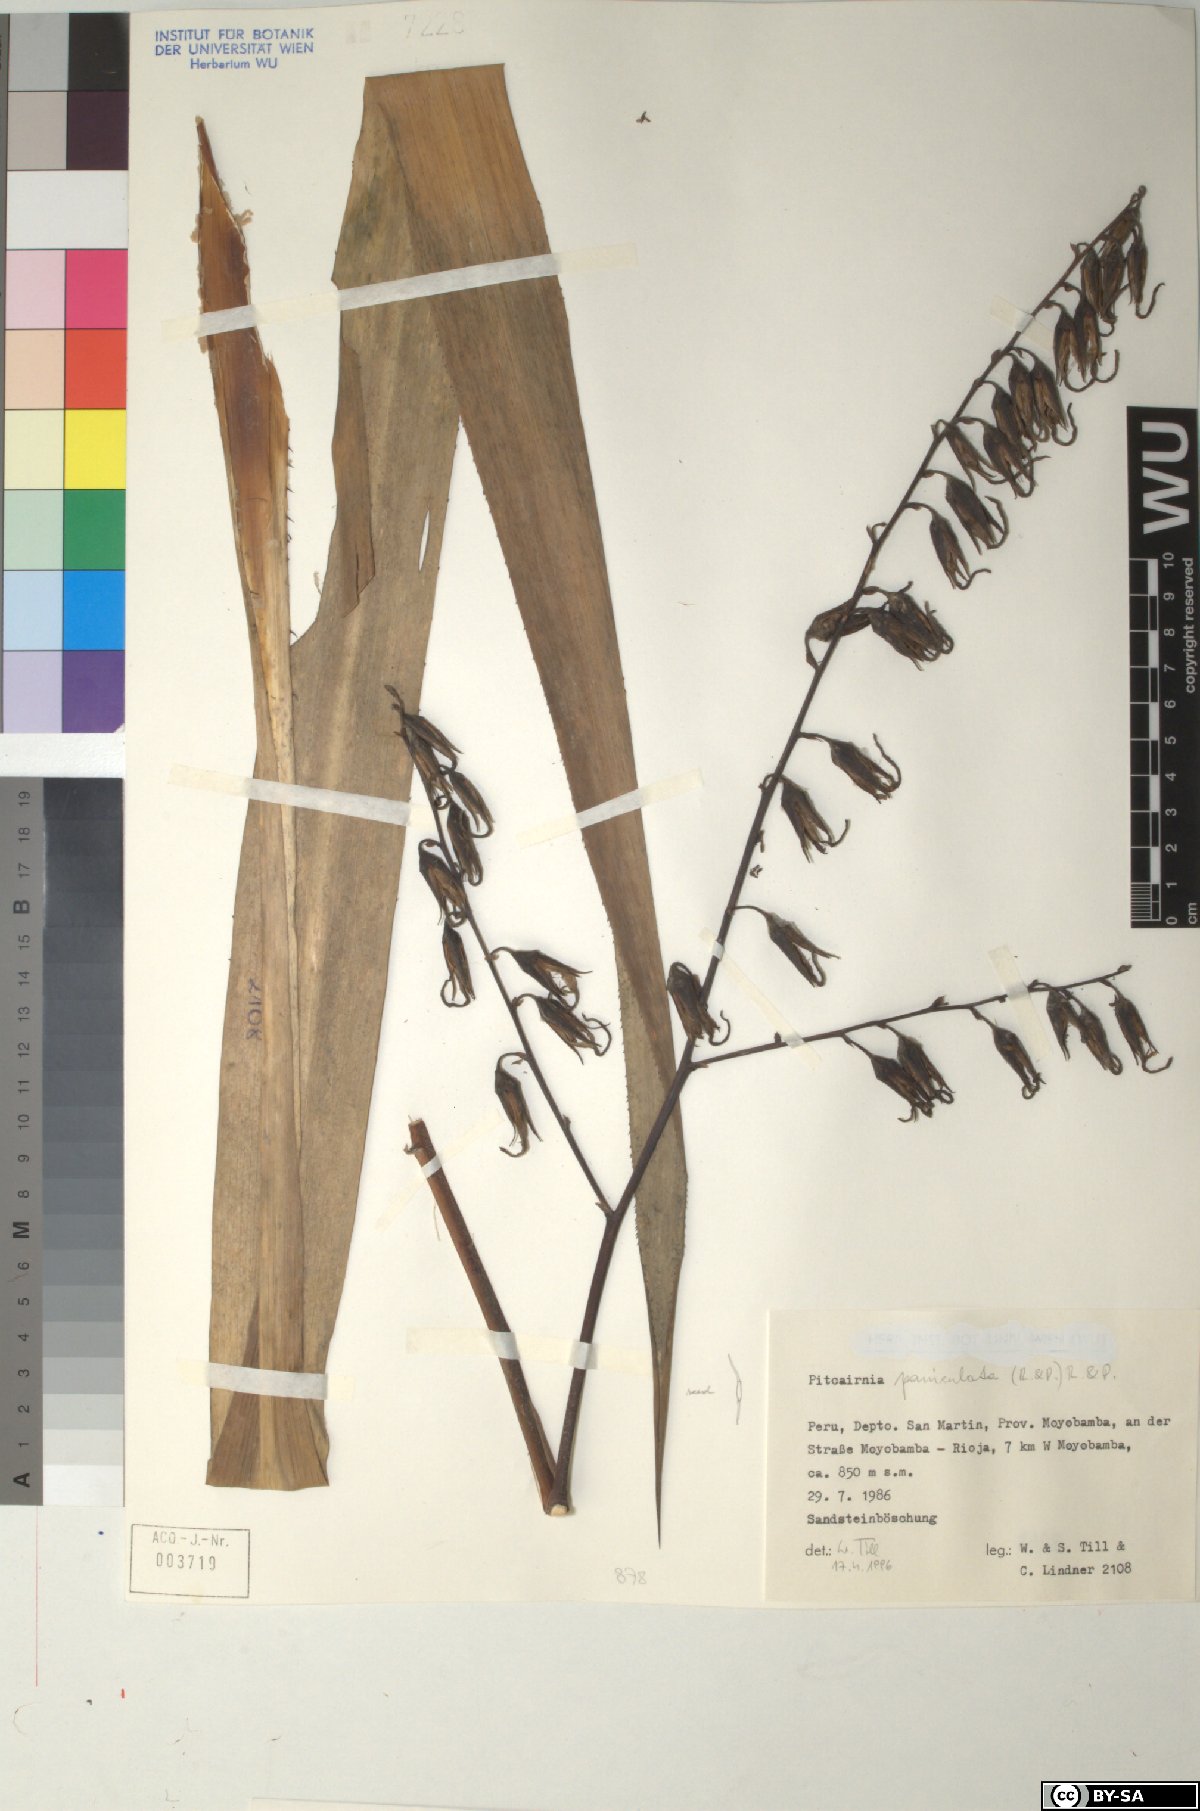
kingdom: Plantae
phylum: Tracheophyta
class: Liliopsida
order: Poales
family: Bromeliaceae
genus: Pitcairnia
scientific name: Pitcairnia paniculata
